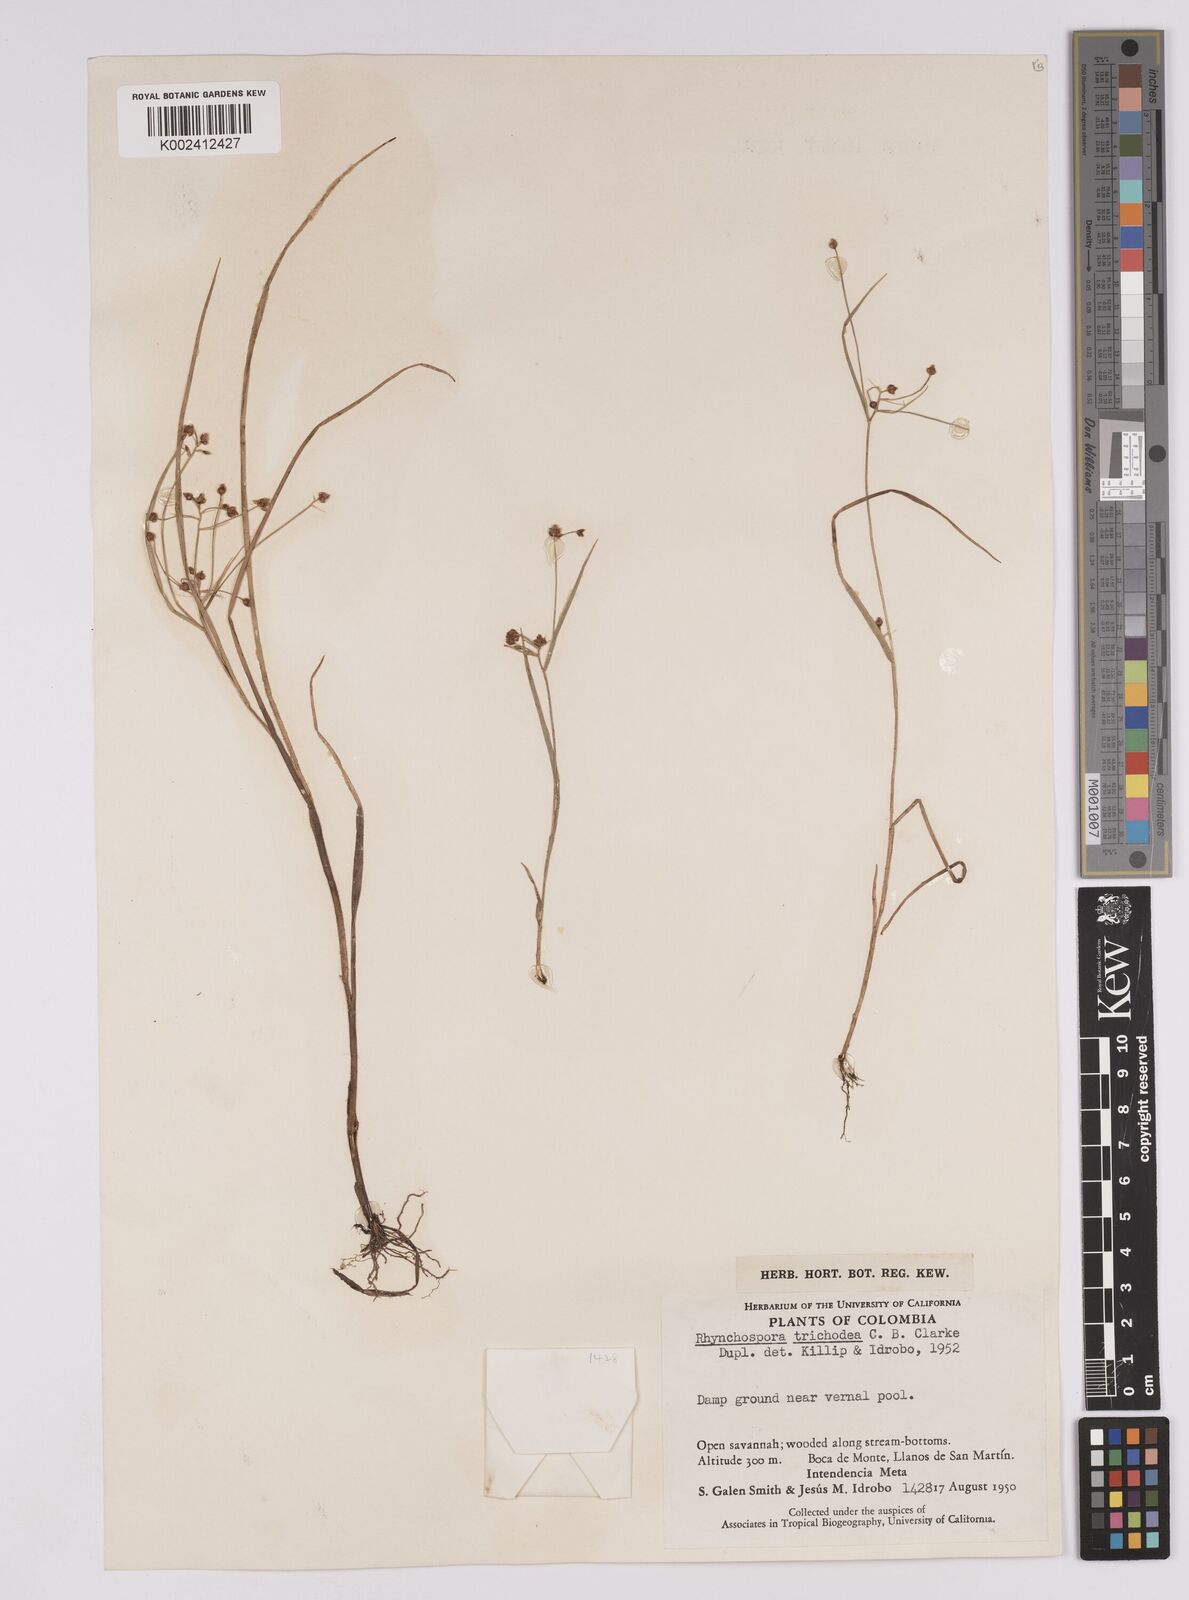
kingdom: Plantae
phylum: Tracheophyta
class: Liliopsida
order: Poales
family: Cyperaceae
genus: Rhynchospora
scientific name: Rhynchospora trichochaeta
